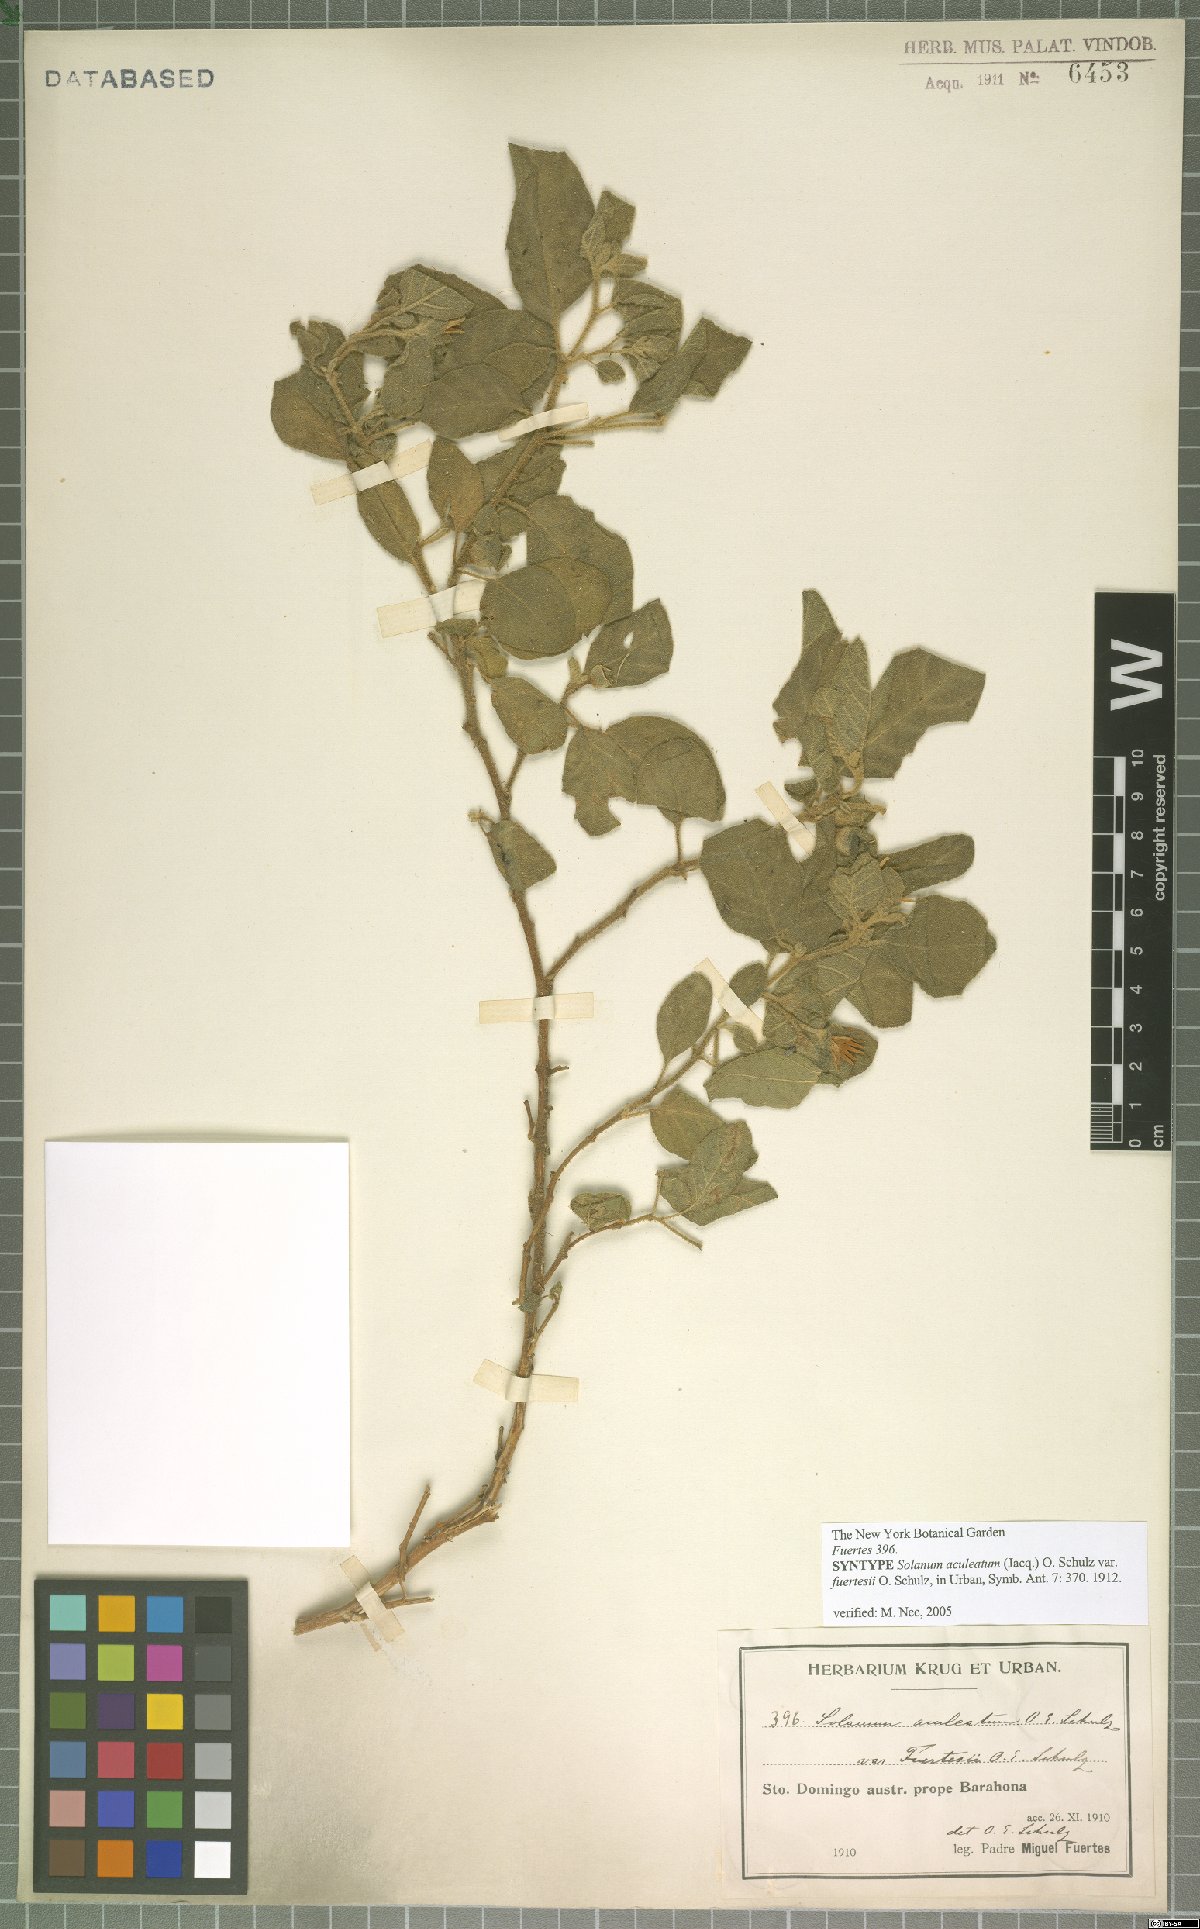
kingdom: Plantae
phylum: Tracheophyta
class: Magnoliopsida
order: Solanales
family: Solanaceae
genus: Solanum
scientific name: Solanum tetramerum
